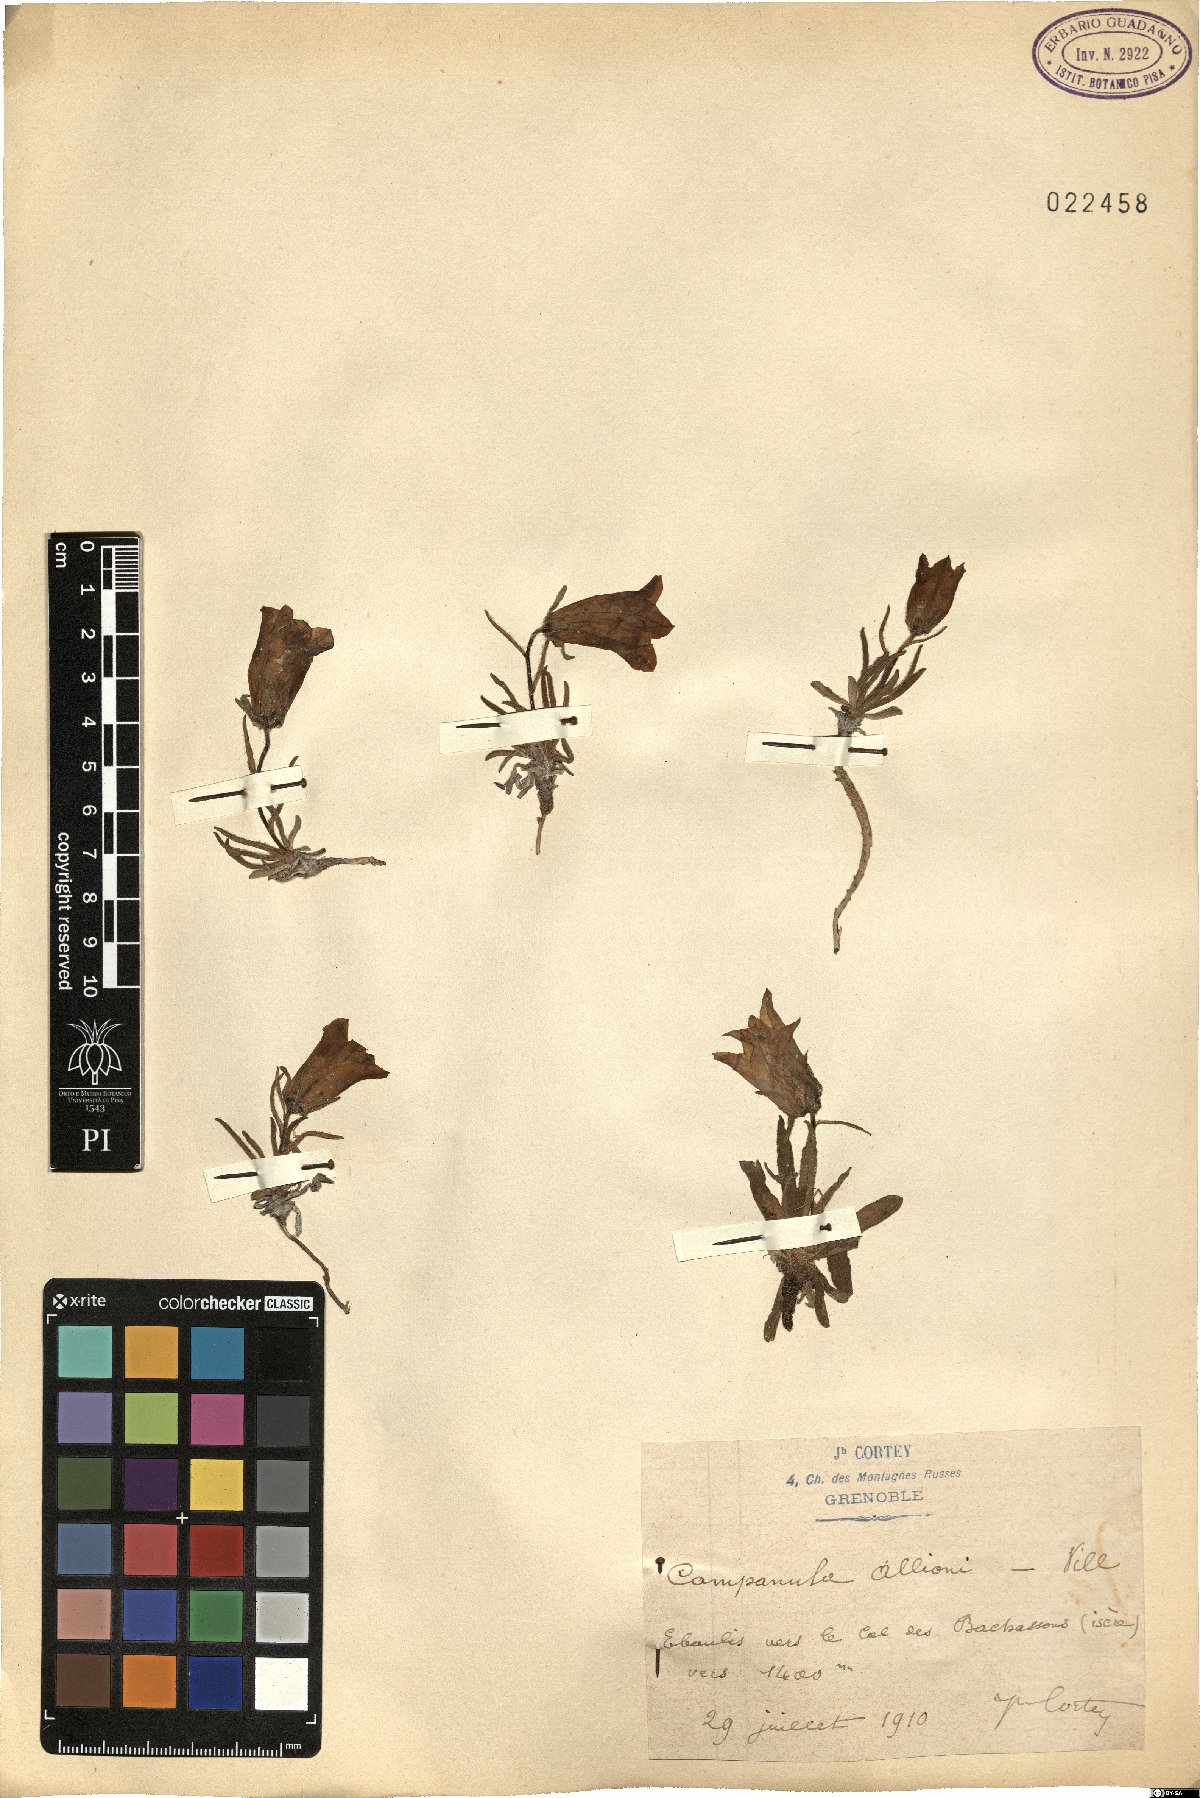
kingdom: Plantae
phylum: Tracheophyta
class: Magnoliopsida
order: Asterales
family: Campanulaceae
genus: Campanula
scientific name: Campanula alpestris
